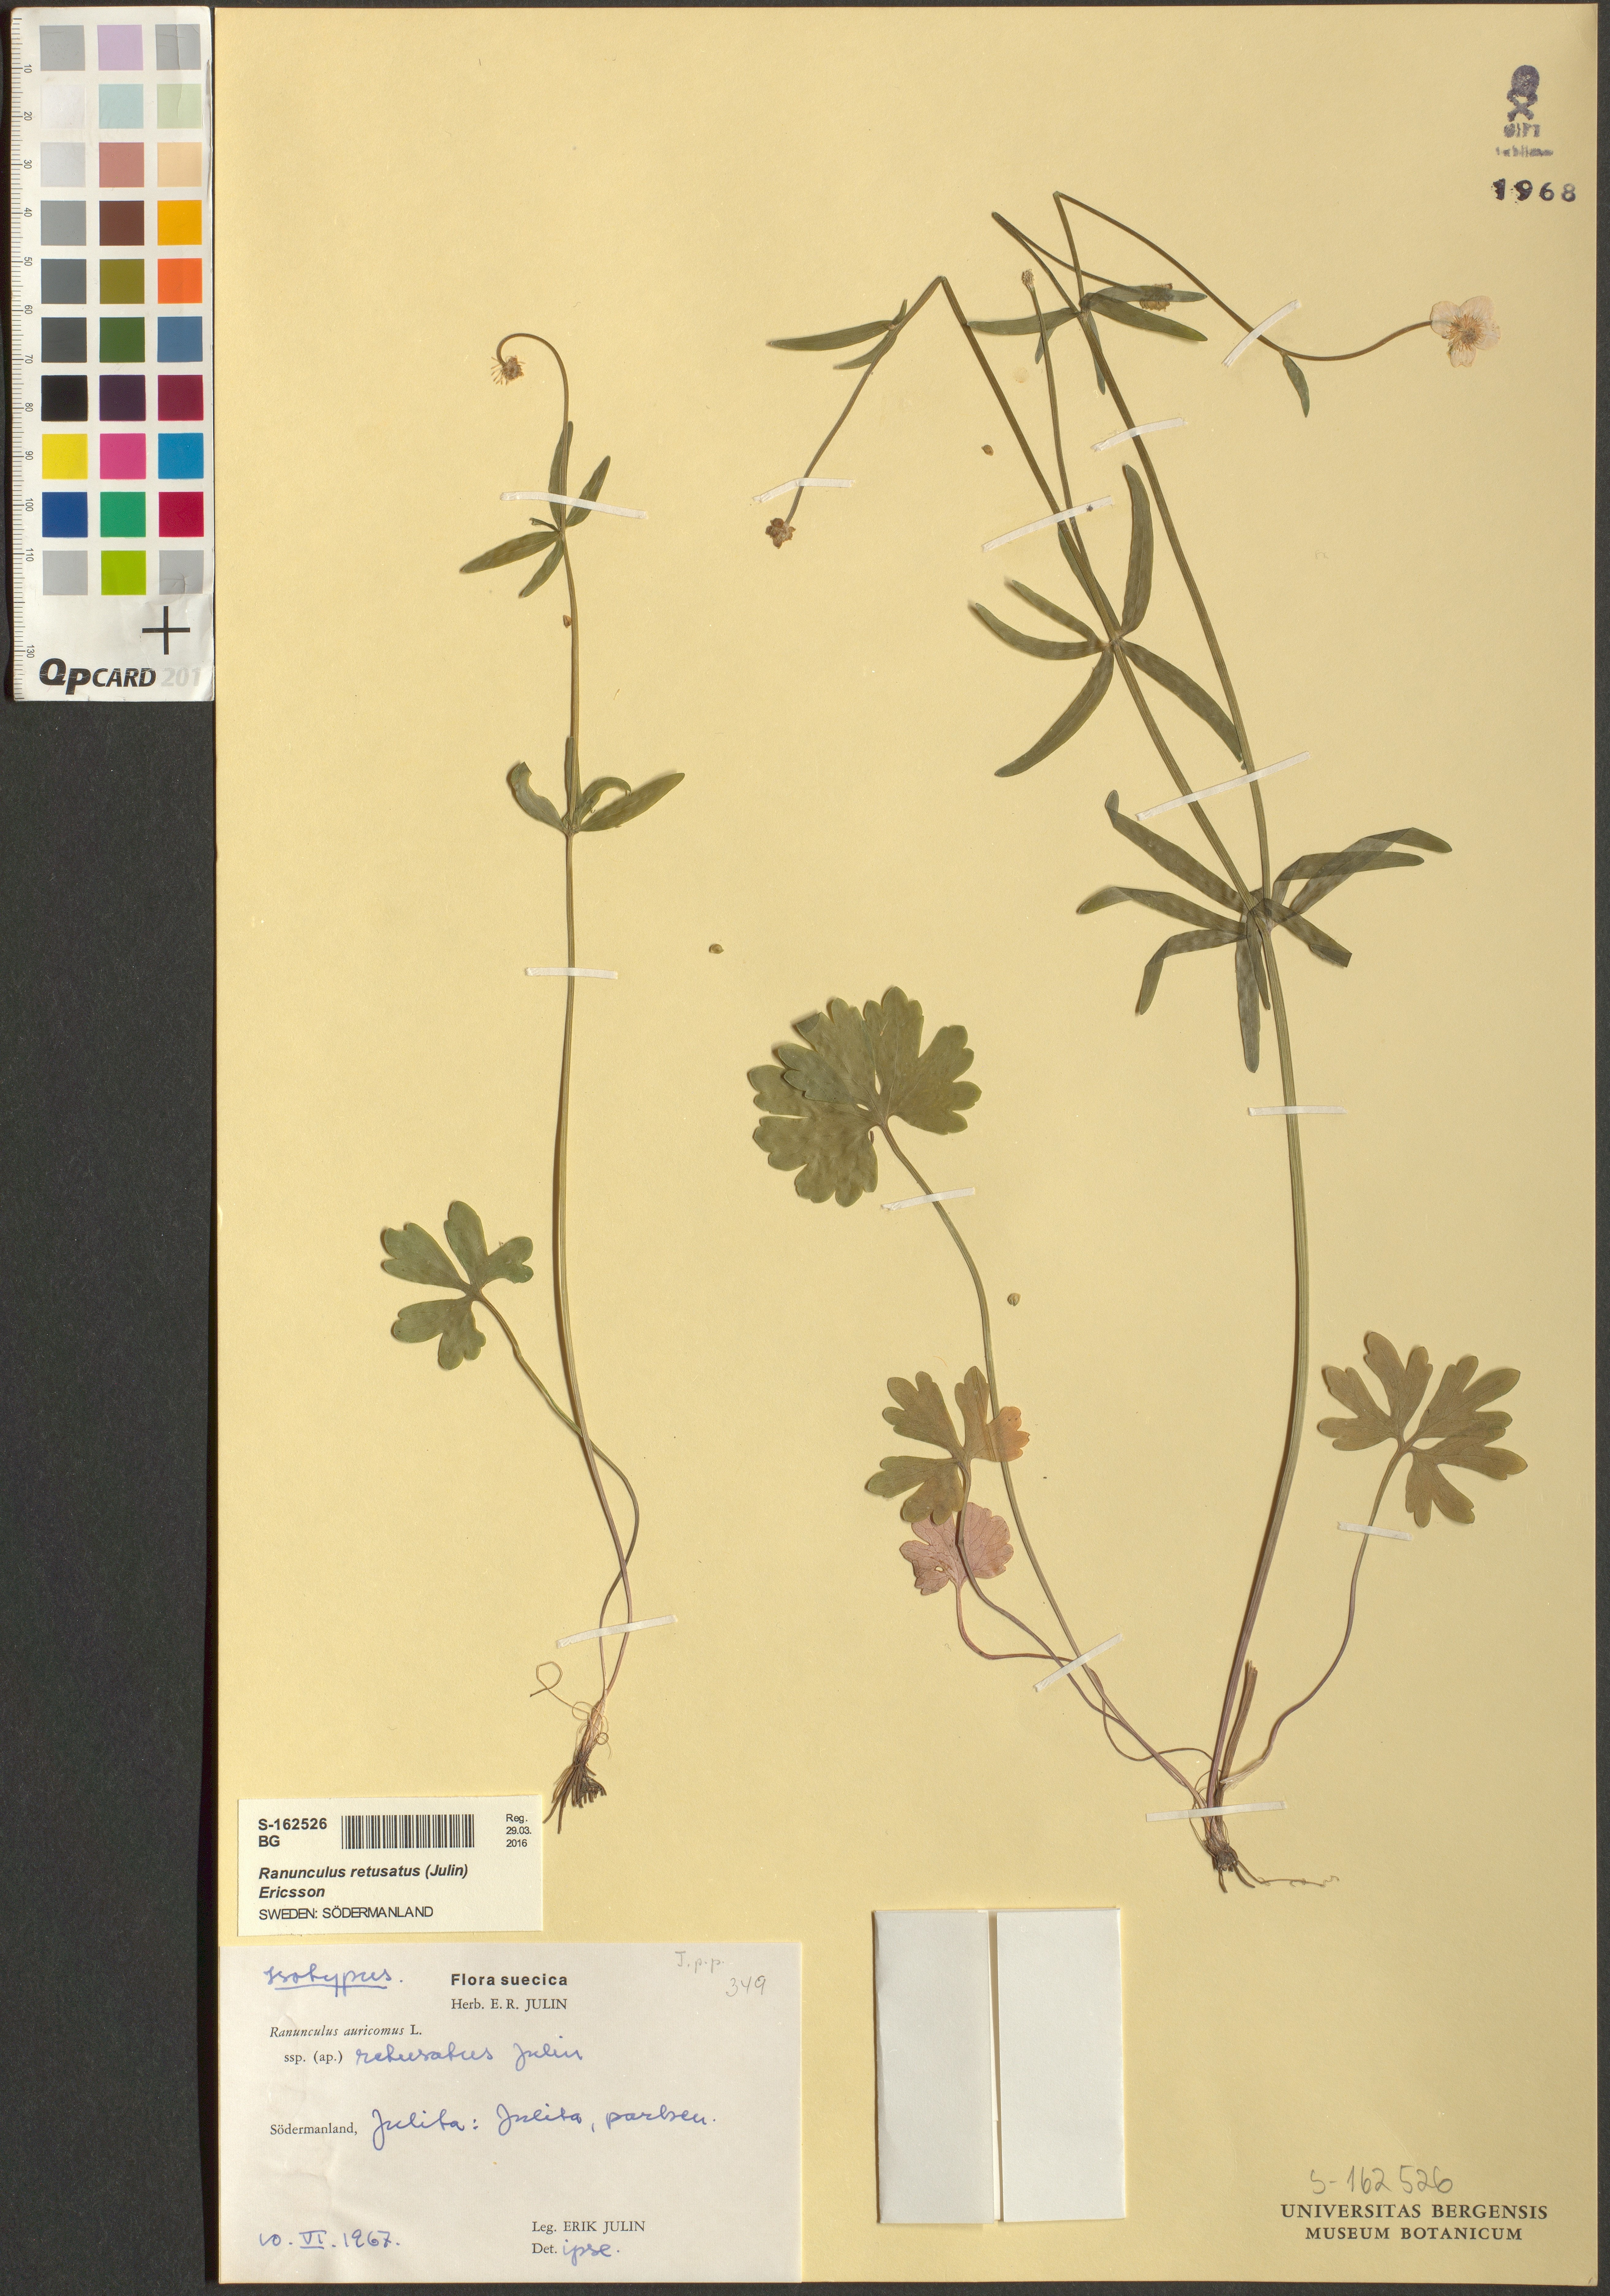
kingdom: Plantae
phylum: Tracheophyta
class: Magnoliopsida
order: Ranunculales
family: Ranunculaceae
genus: Ranunculus
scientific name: Ranunculus retusatus
